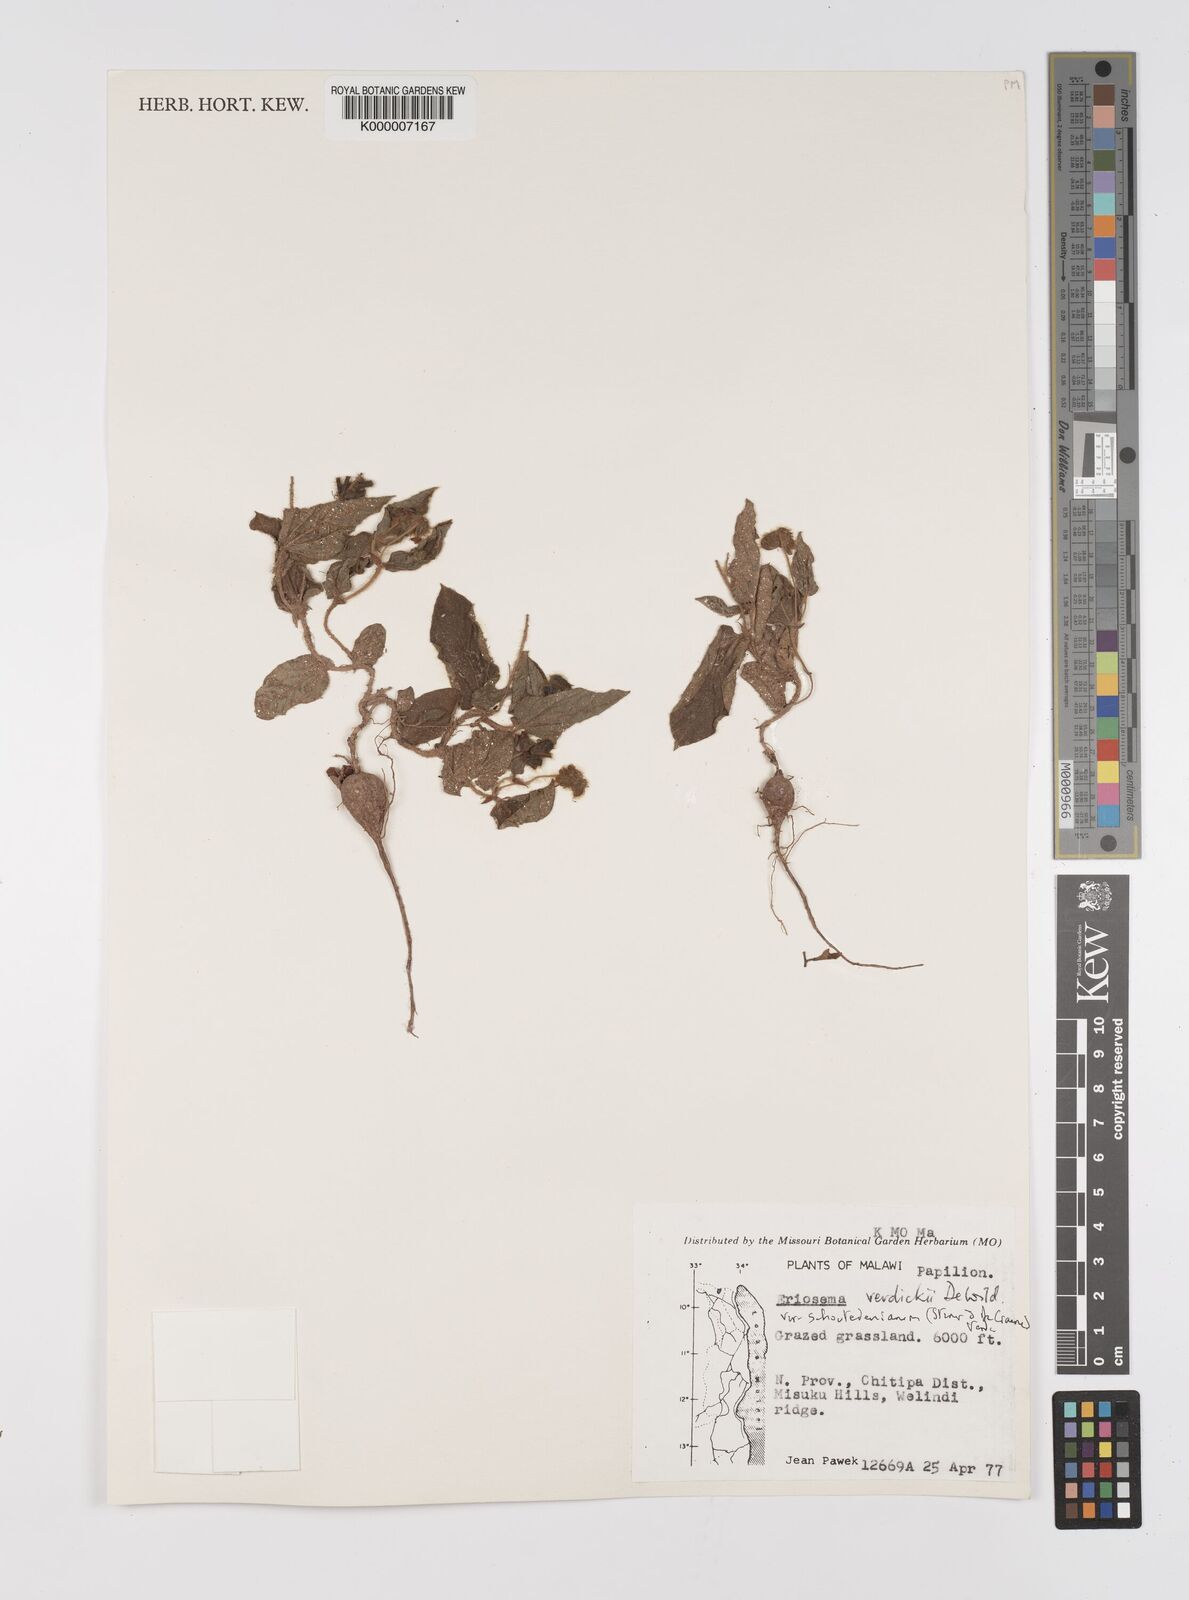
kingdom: Plantae
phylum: Tracheophyta
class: Magnoliopsida
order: Fabales
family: Fabaceae
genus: Eriosema
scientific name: Eriosema verdickii
